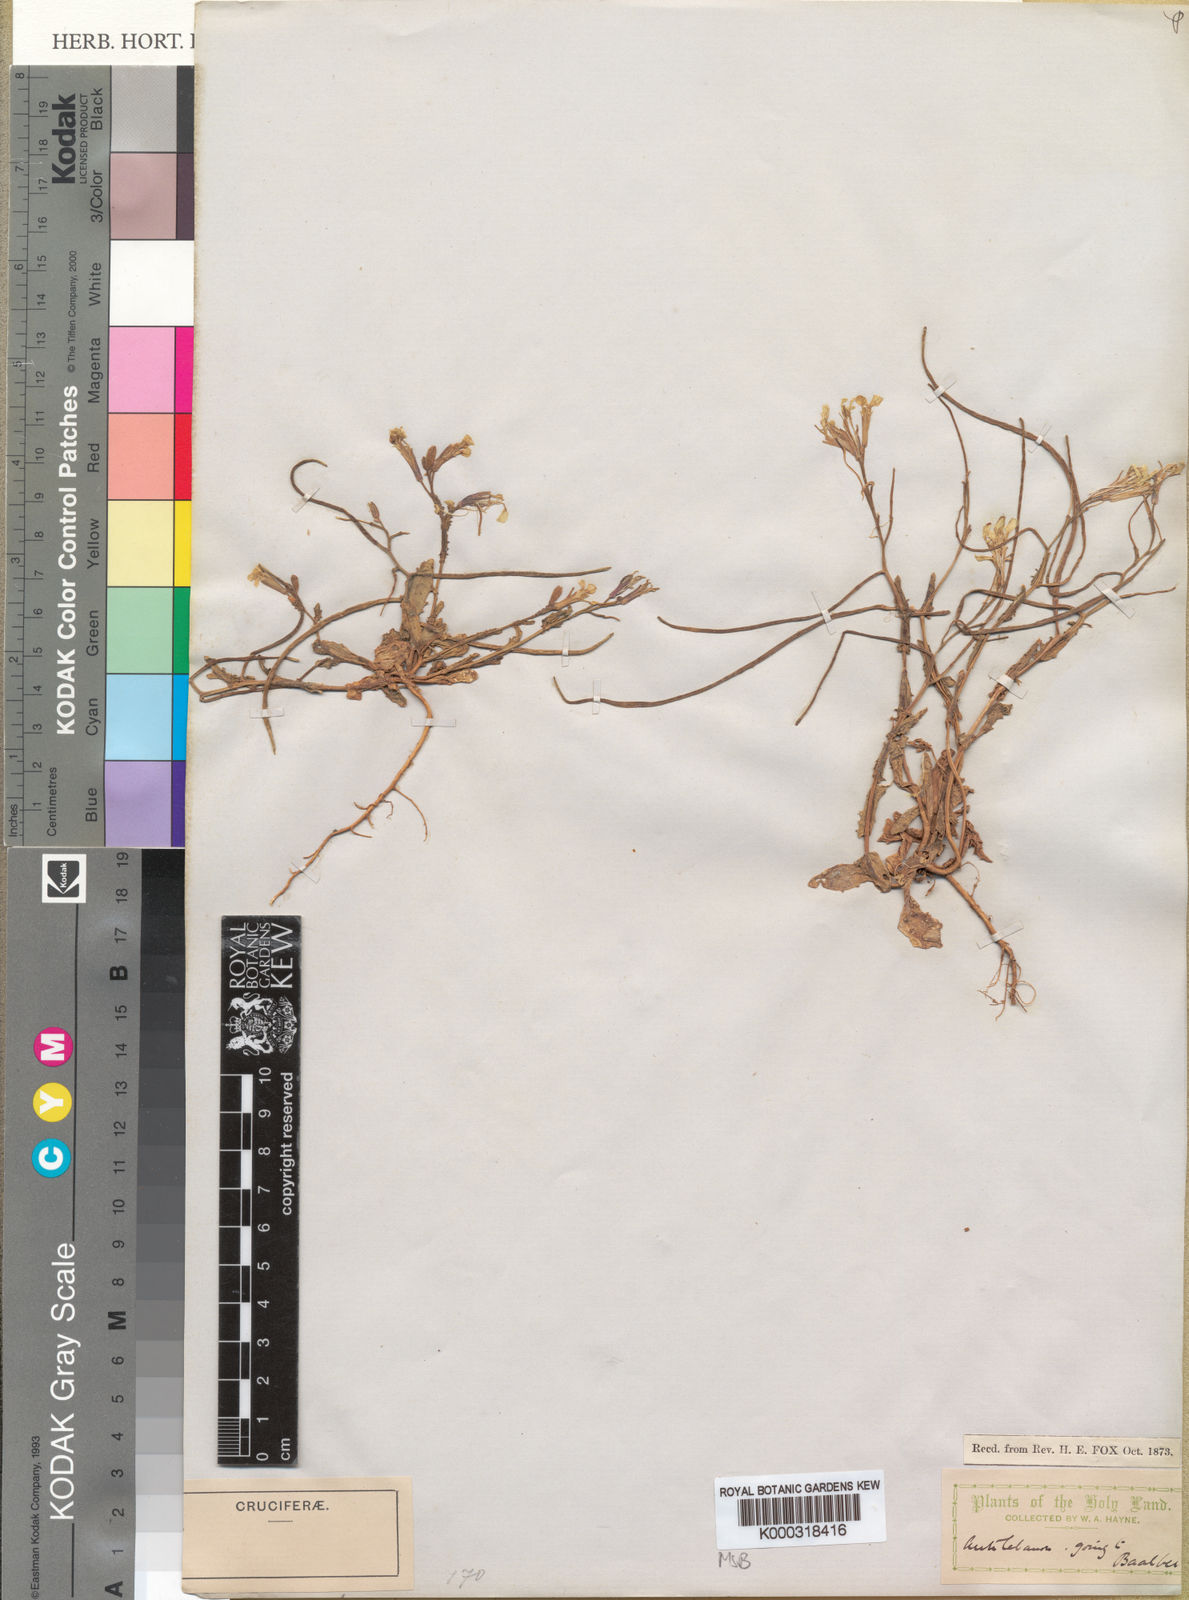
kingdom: Plantae
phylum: Tracheophyta
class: Magnoliopsida
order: Brassicales
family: Brassicaceae
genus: Zuvanda
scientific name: Zuvanda exacoides
